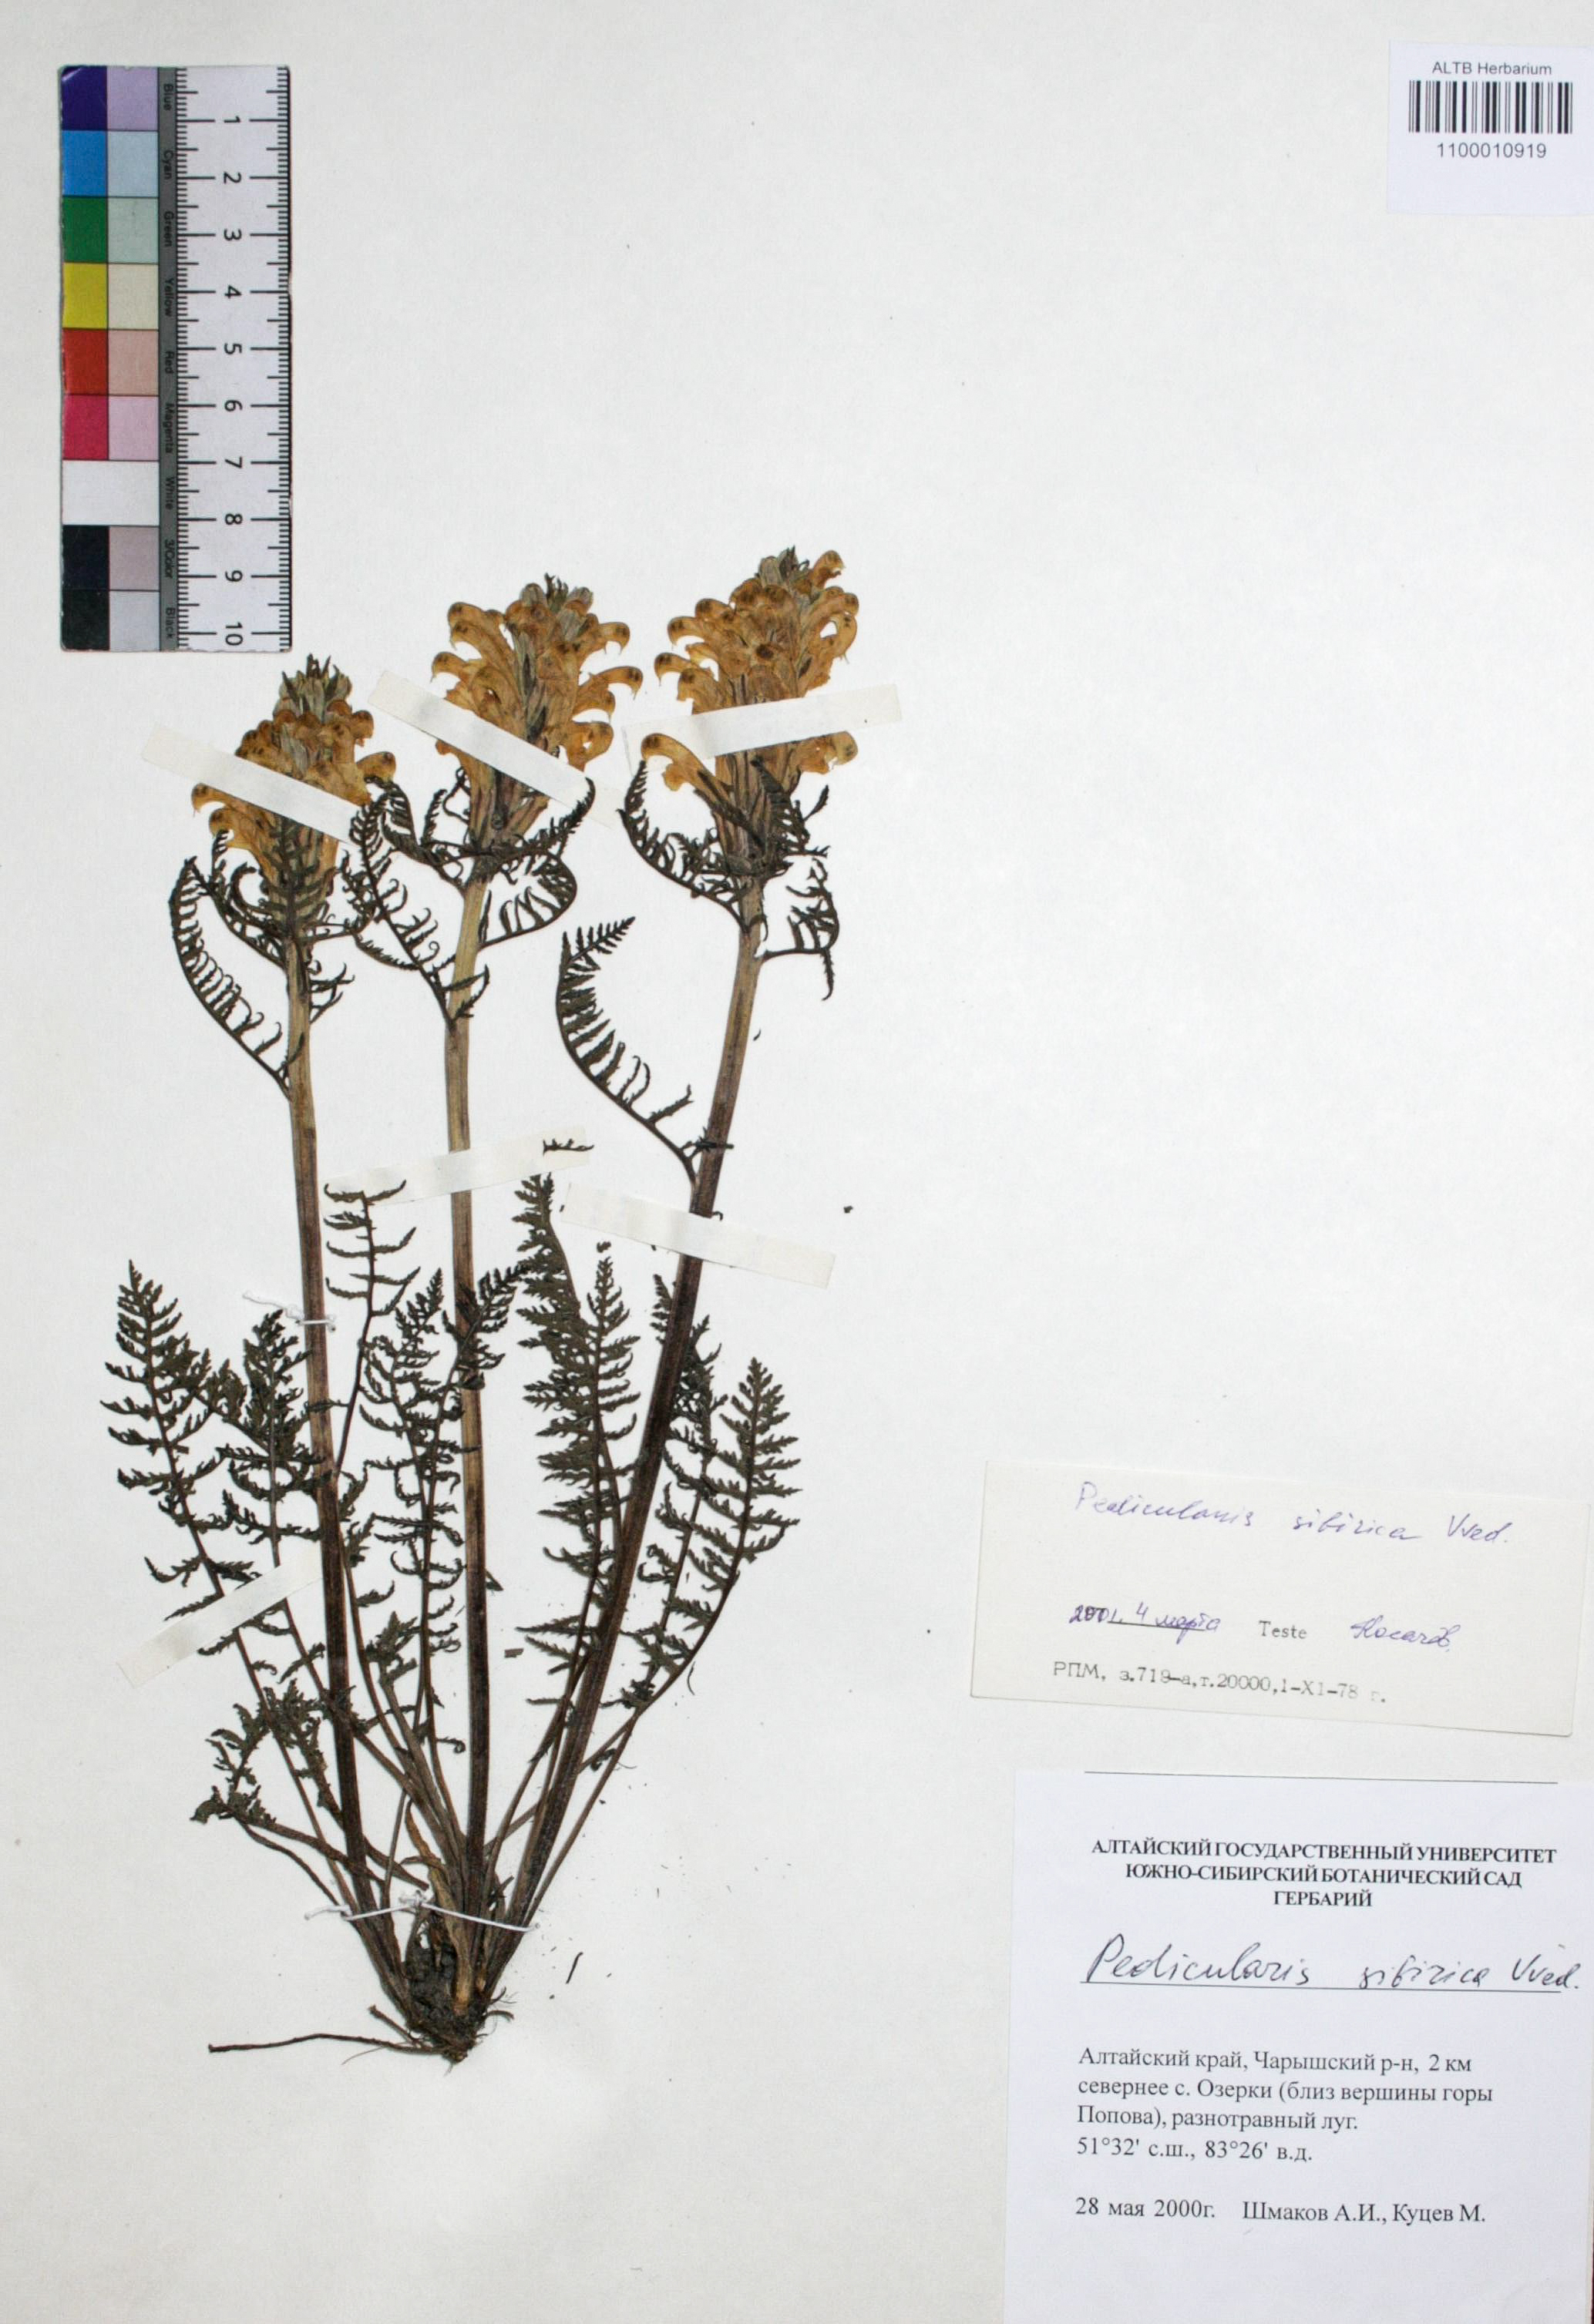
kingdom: Plantae
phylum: Tracheophyta
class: Magnoliopsida
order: Lamiales
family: Orobanchaceae
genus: Pedicularis
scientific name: Pedicularis sibirica
